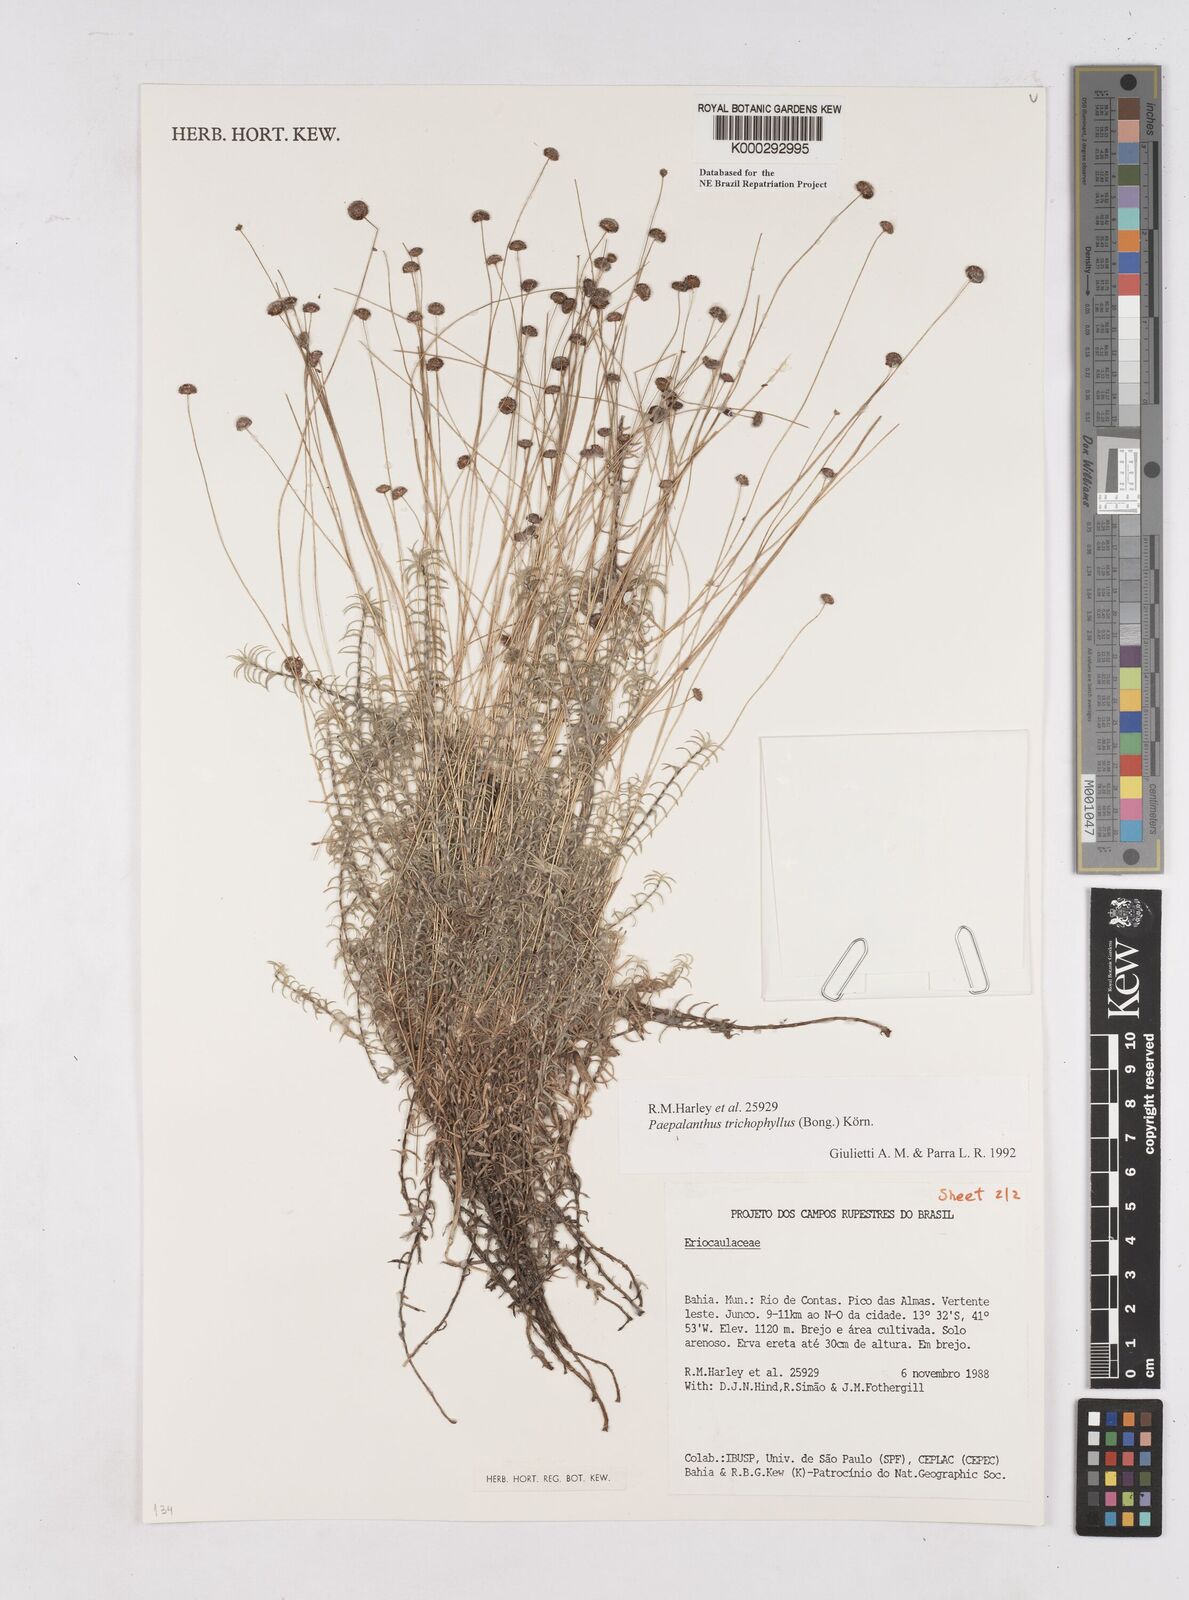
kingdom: Plantae
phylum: Tracheophyta
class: Liliopsida
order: Poales
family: Eriocaulaceae
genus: Paepalanthus
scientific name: Paepalanthus
